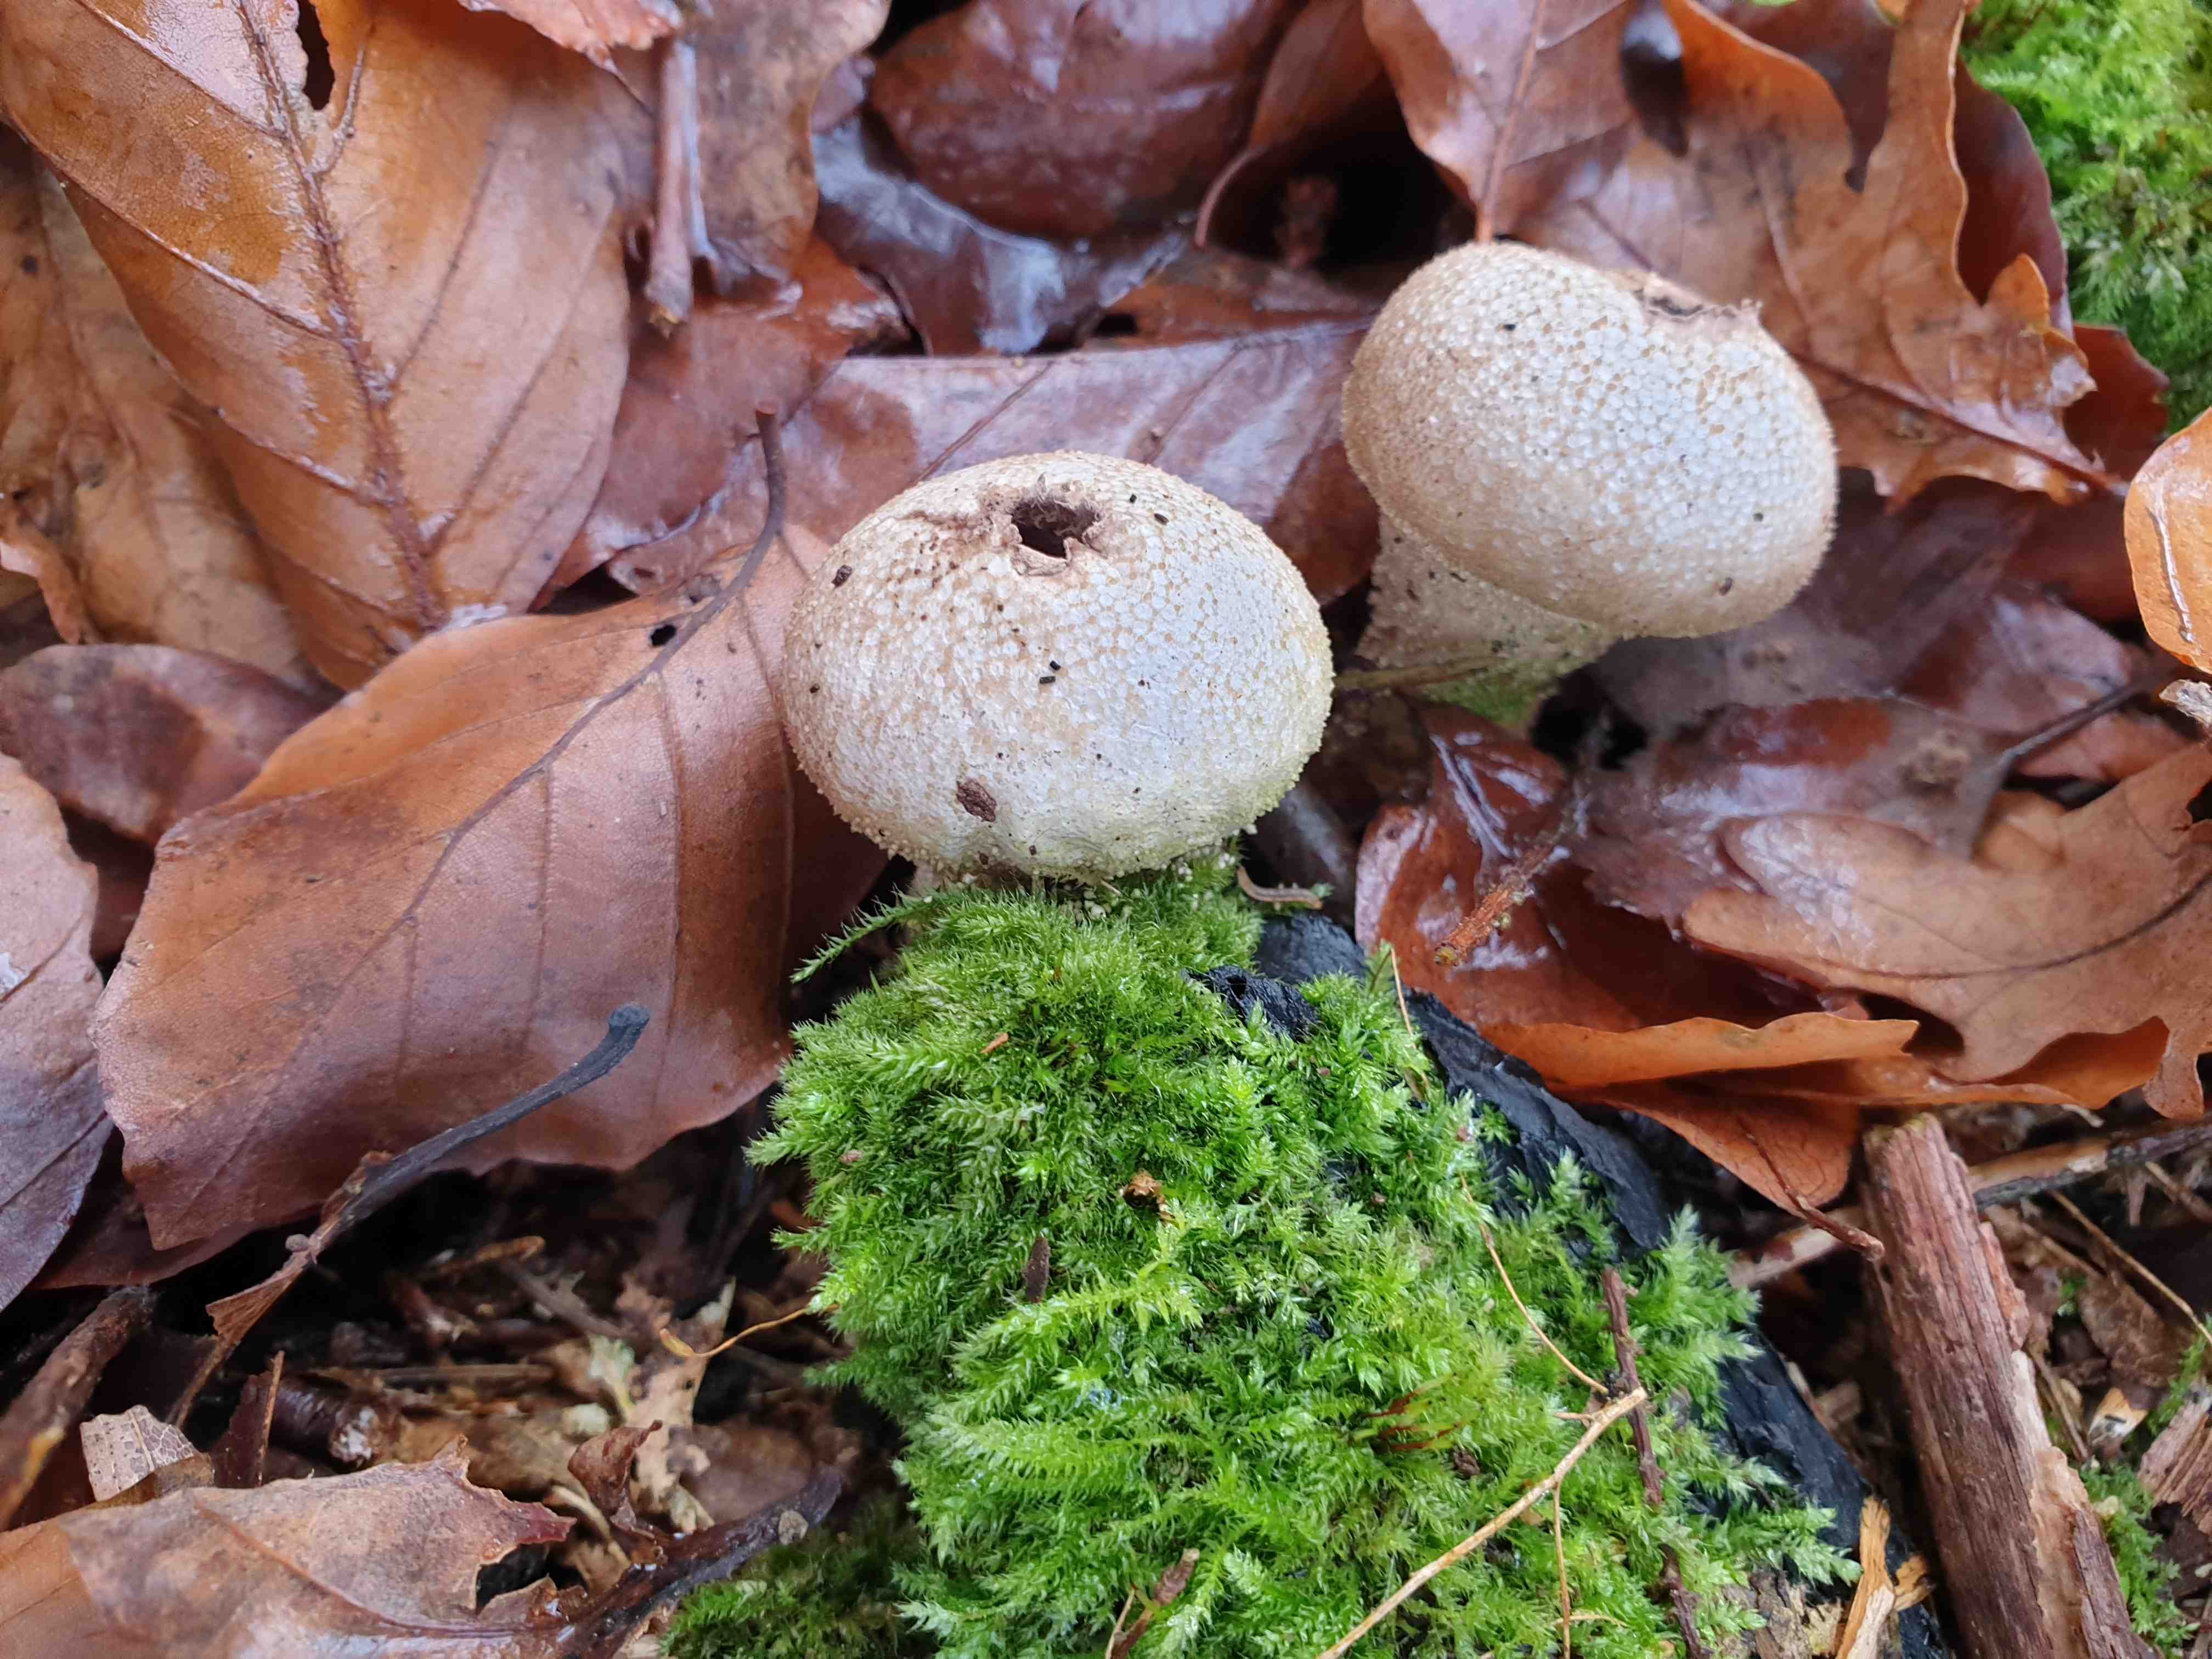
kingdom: Fungi
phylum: Basidiomycota
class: Agaricomycetes
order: Agaricales
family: Lycoperdaceae
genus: Lycoperdon
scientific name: Lycoperdon perlatum
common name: krystal-støvbold
